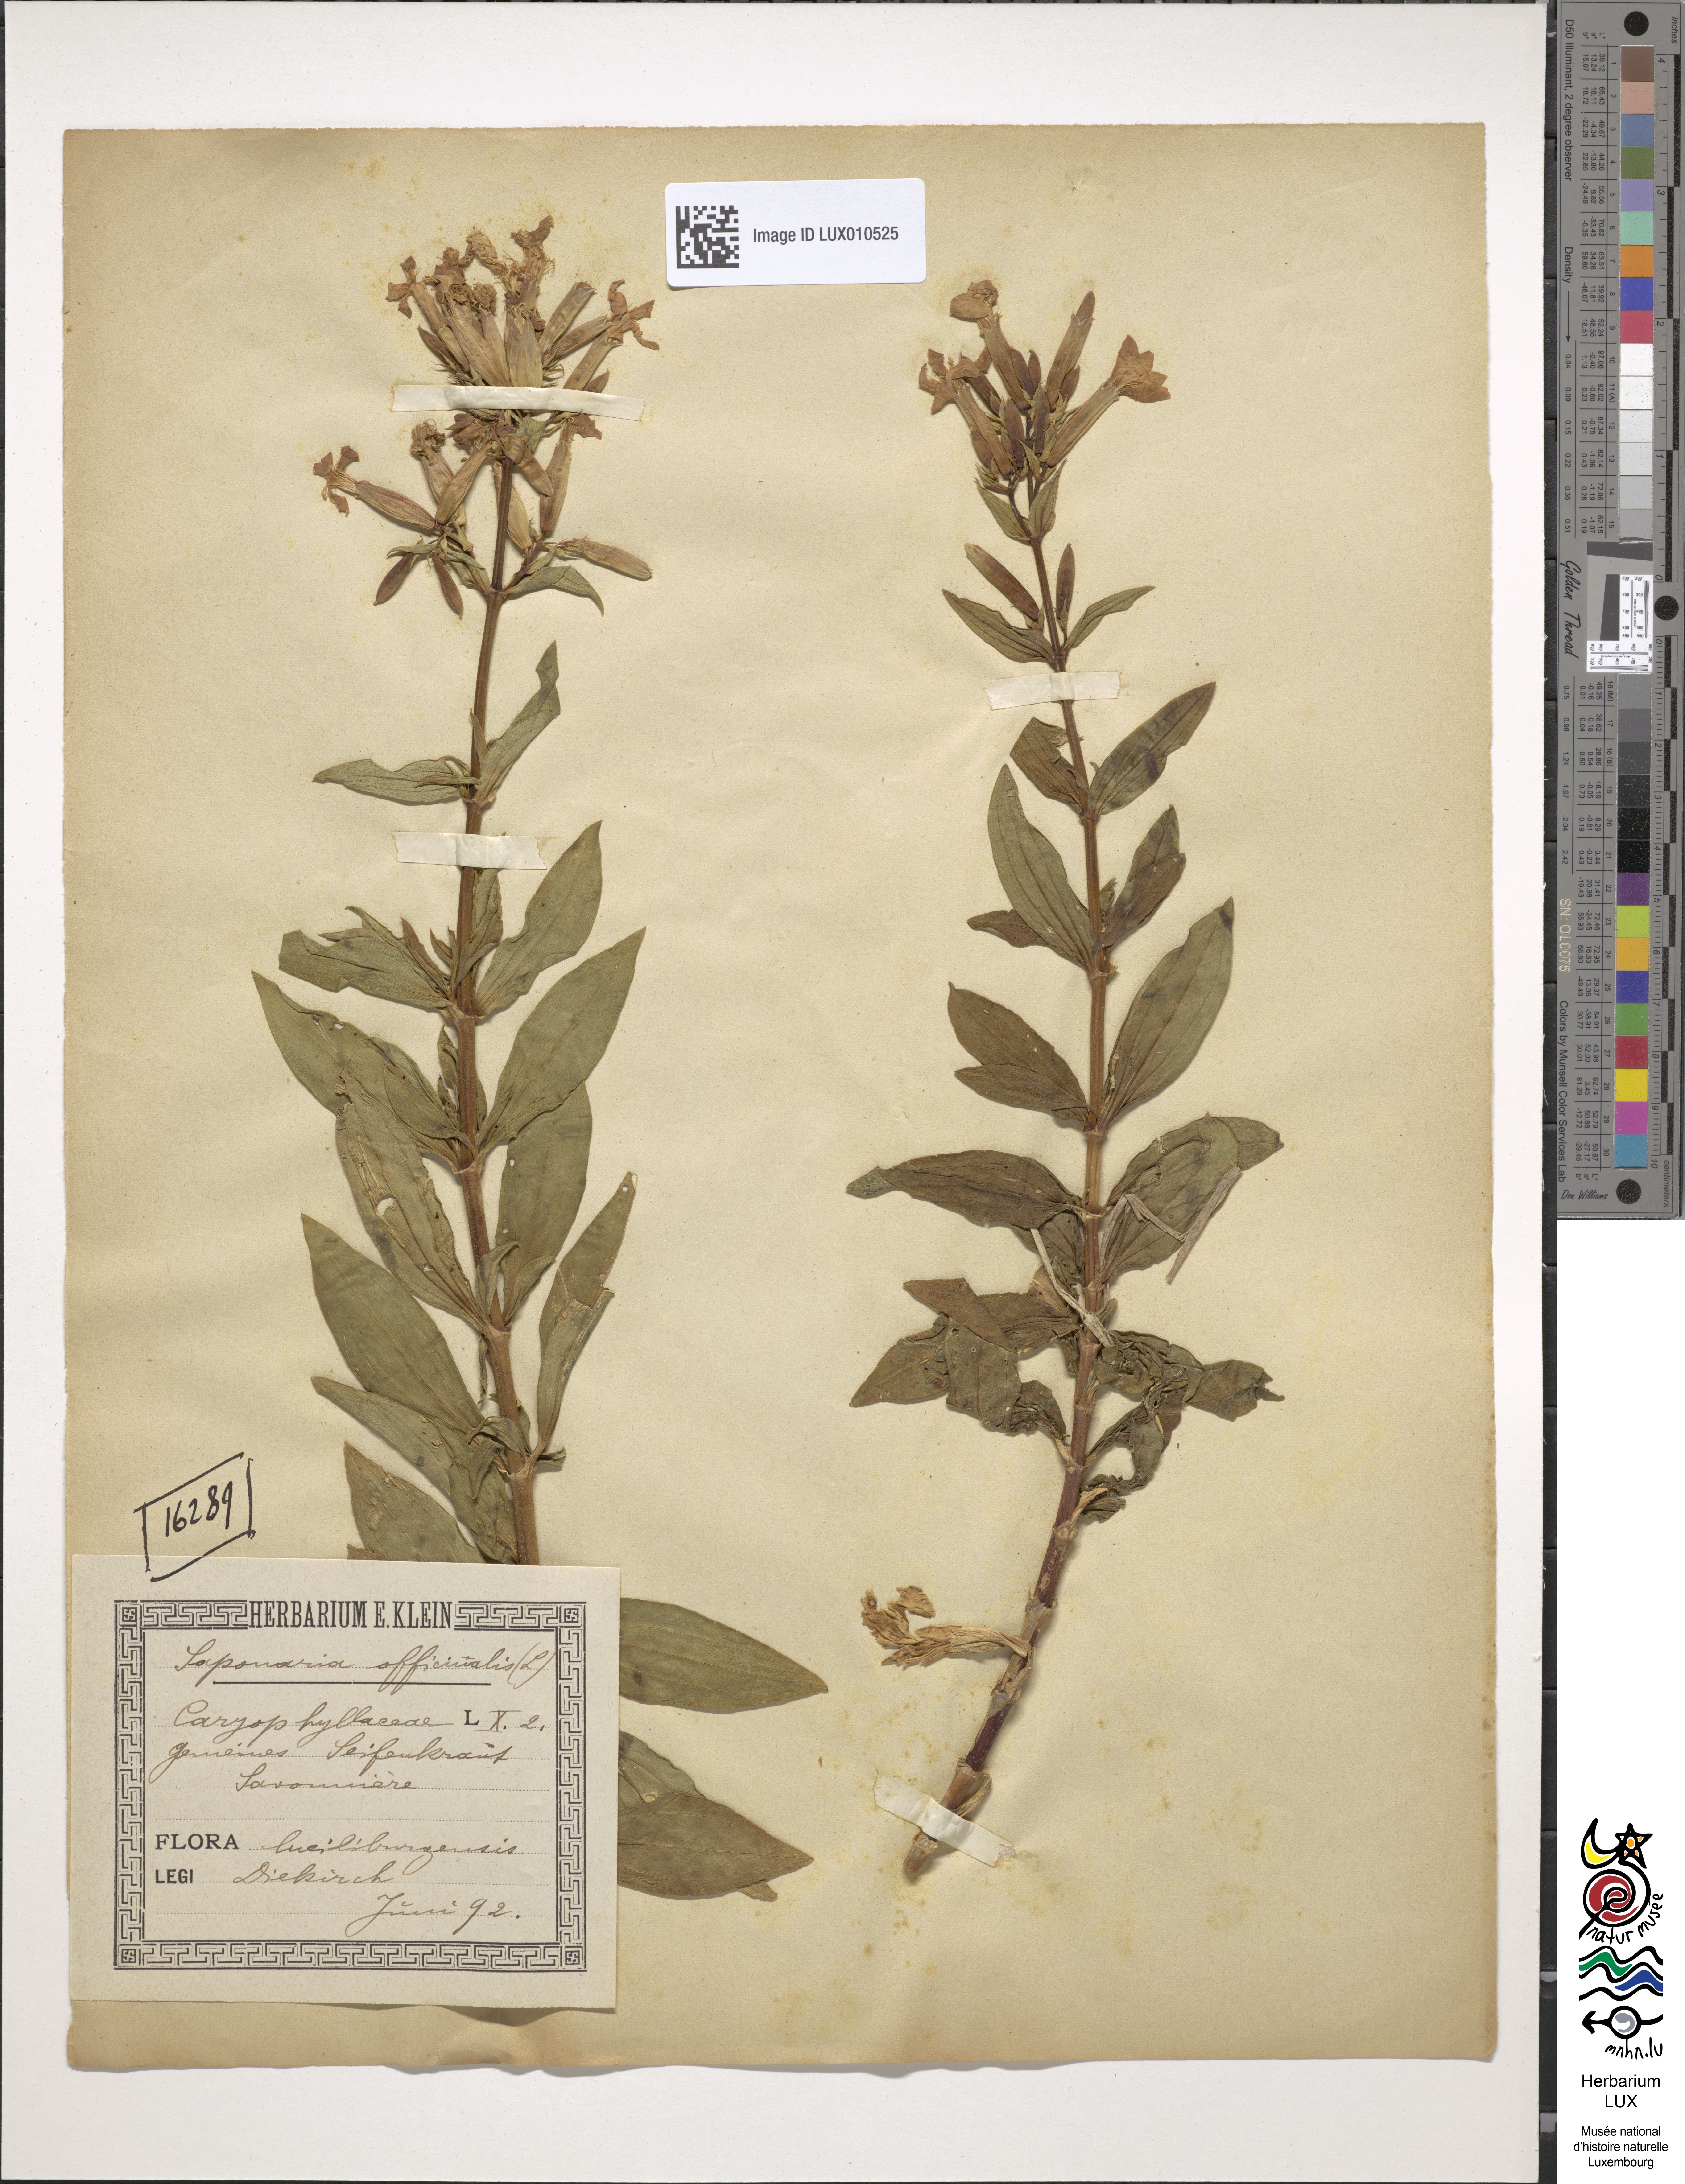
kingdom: Plantae
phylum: Tracheophyta
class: Magnoliopsida
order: Caryophyllales
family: Caryophyllaceae
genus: Saponaria
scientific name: Saponaria officinalis
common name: Soapwort
